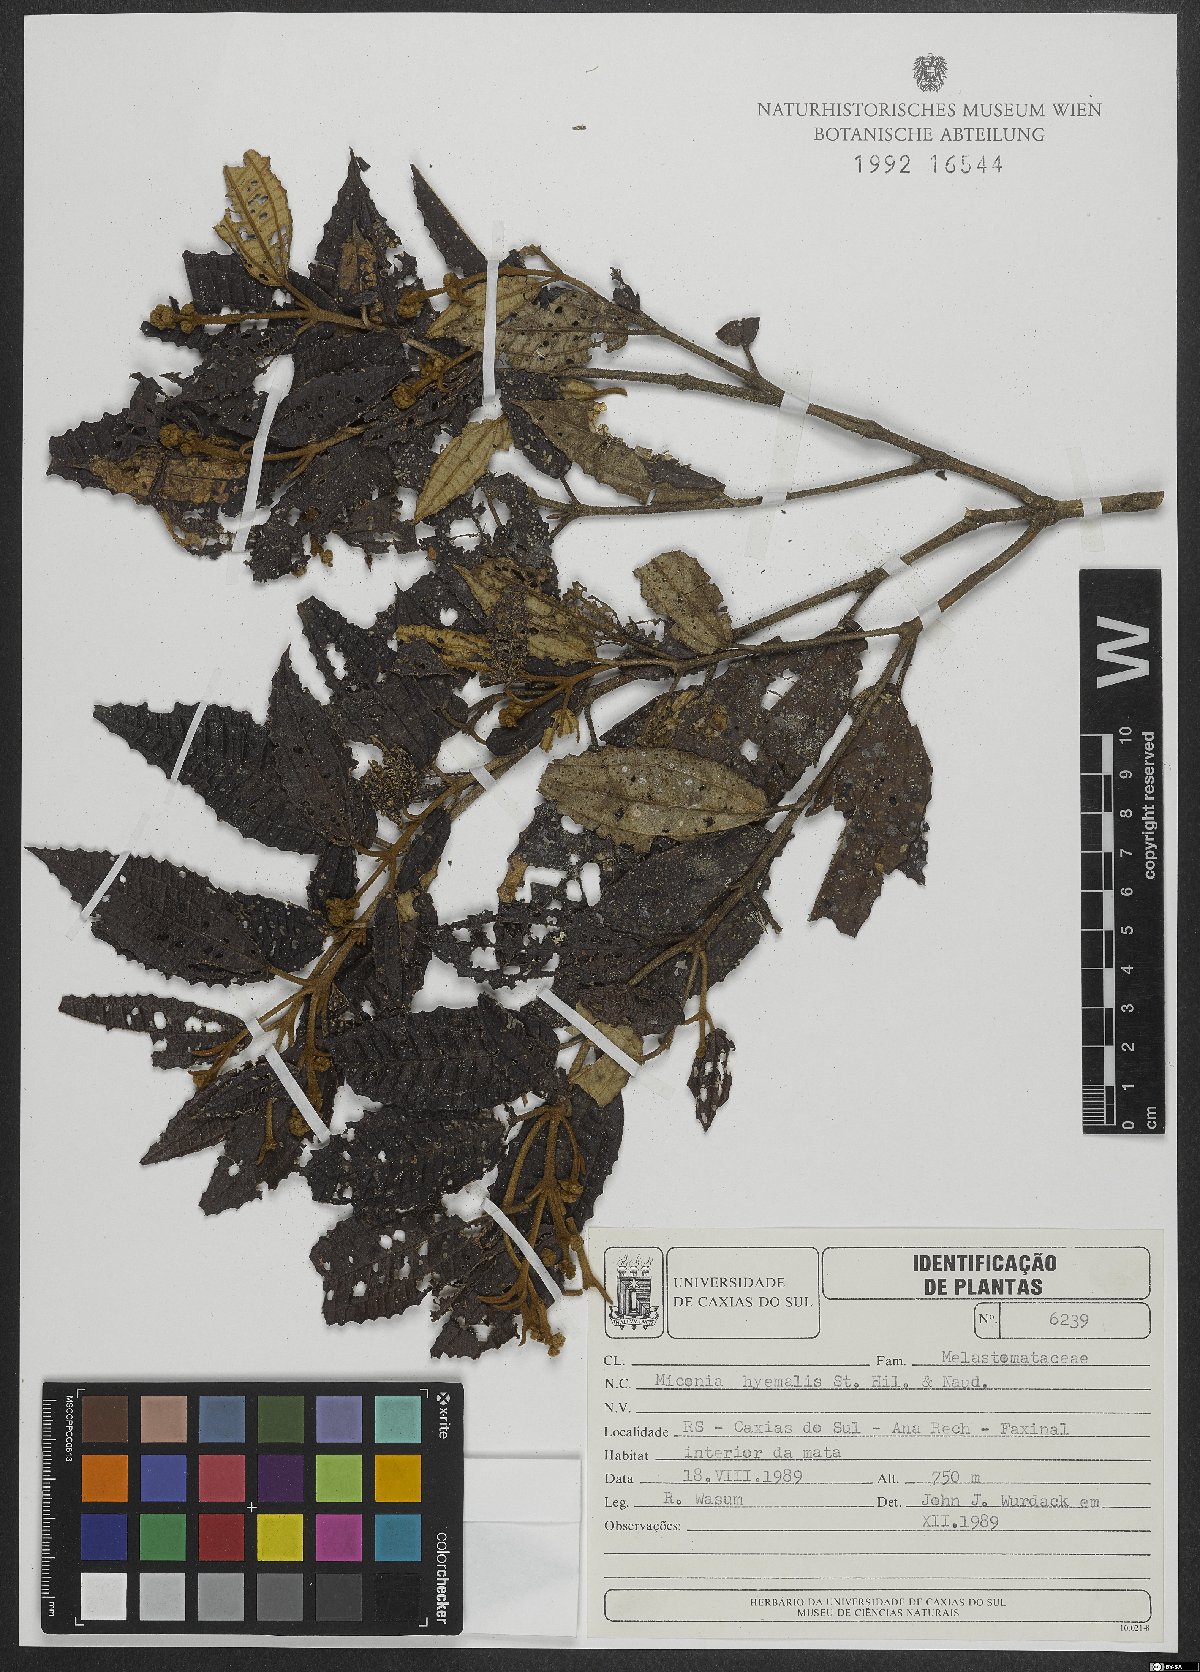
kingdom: Plantae
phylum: Tracheophyta
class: Magnoliopsida
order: Myrtales
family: Melastomataceae
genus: Miconia
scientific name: Miconia hyemalis
